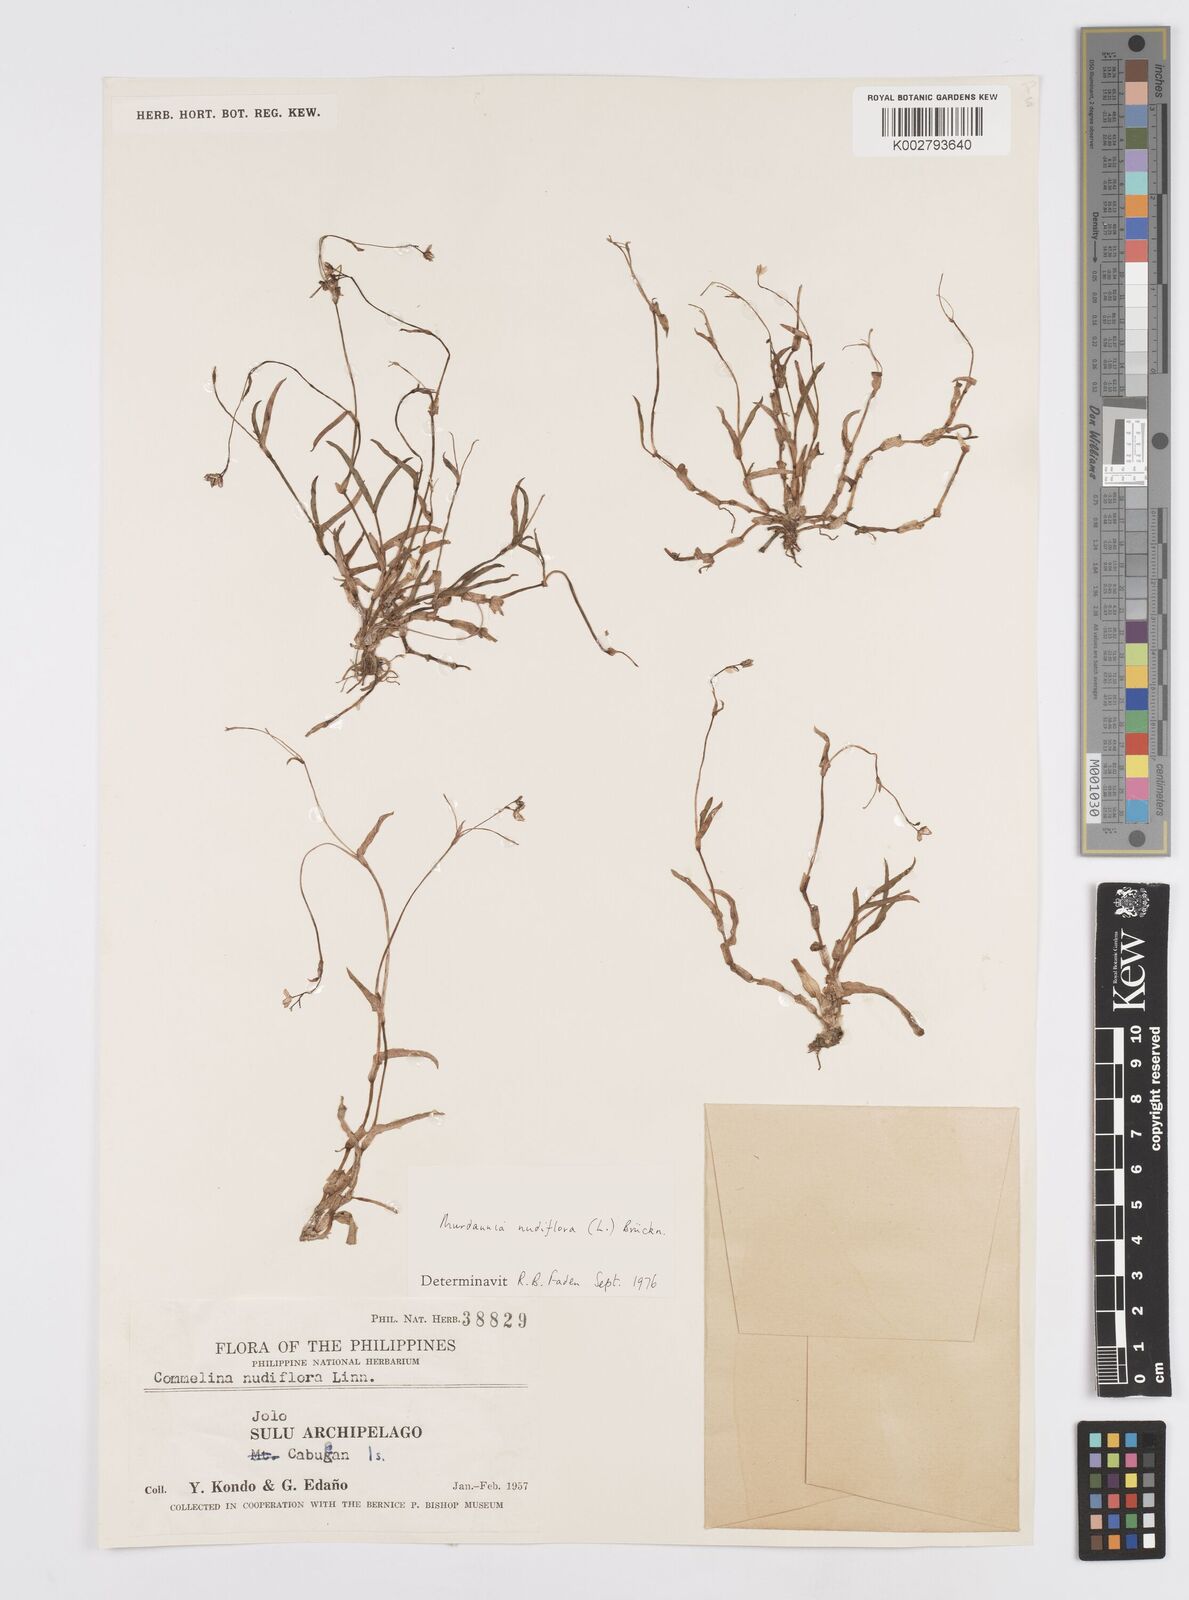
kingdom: Plantae
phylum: Tracheophyta
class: Liliopsida
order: Commelinales
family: Commelinaceae
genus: Murdannia
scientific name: Murdannia nudiflora
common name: Nakedstem dewflower
